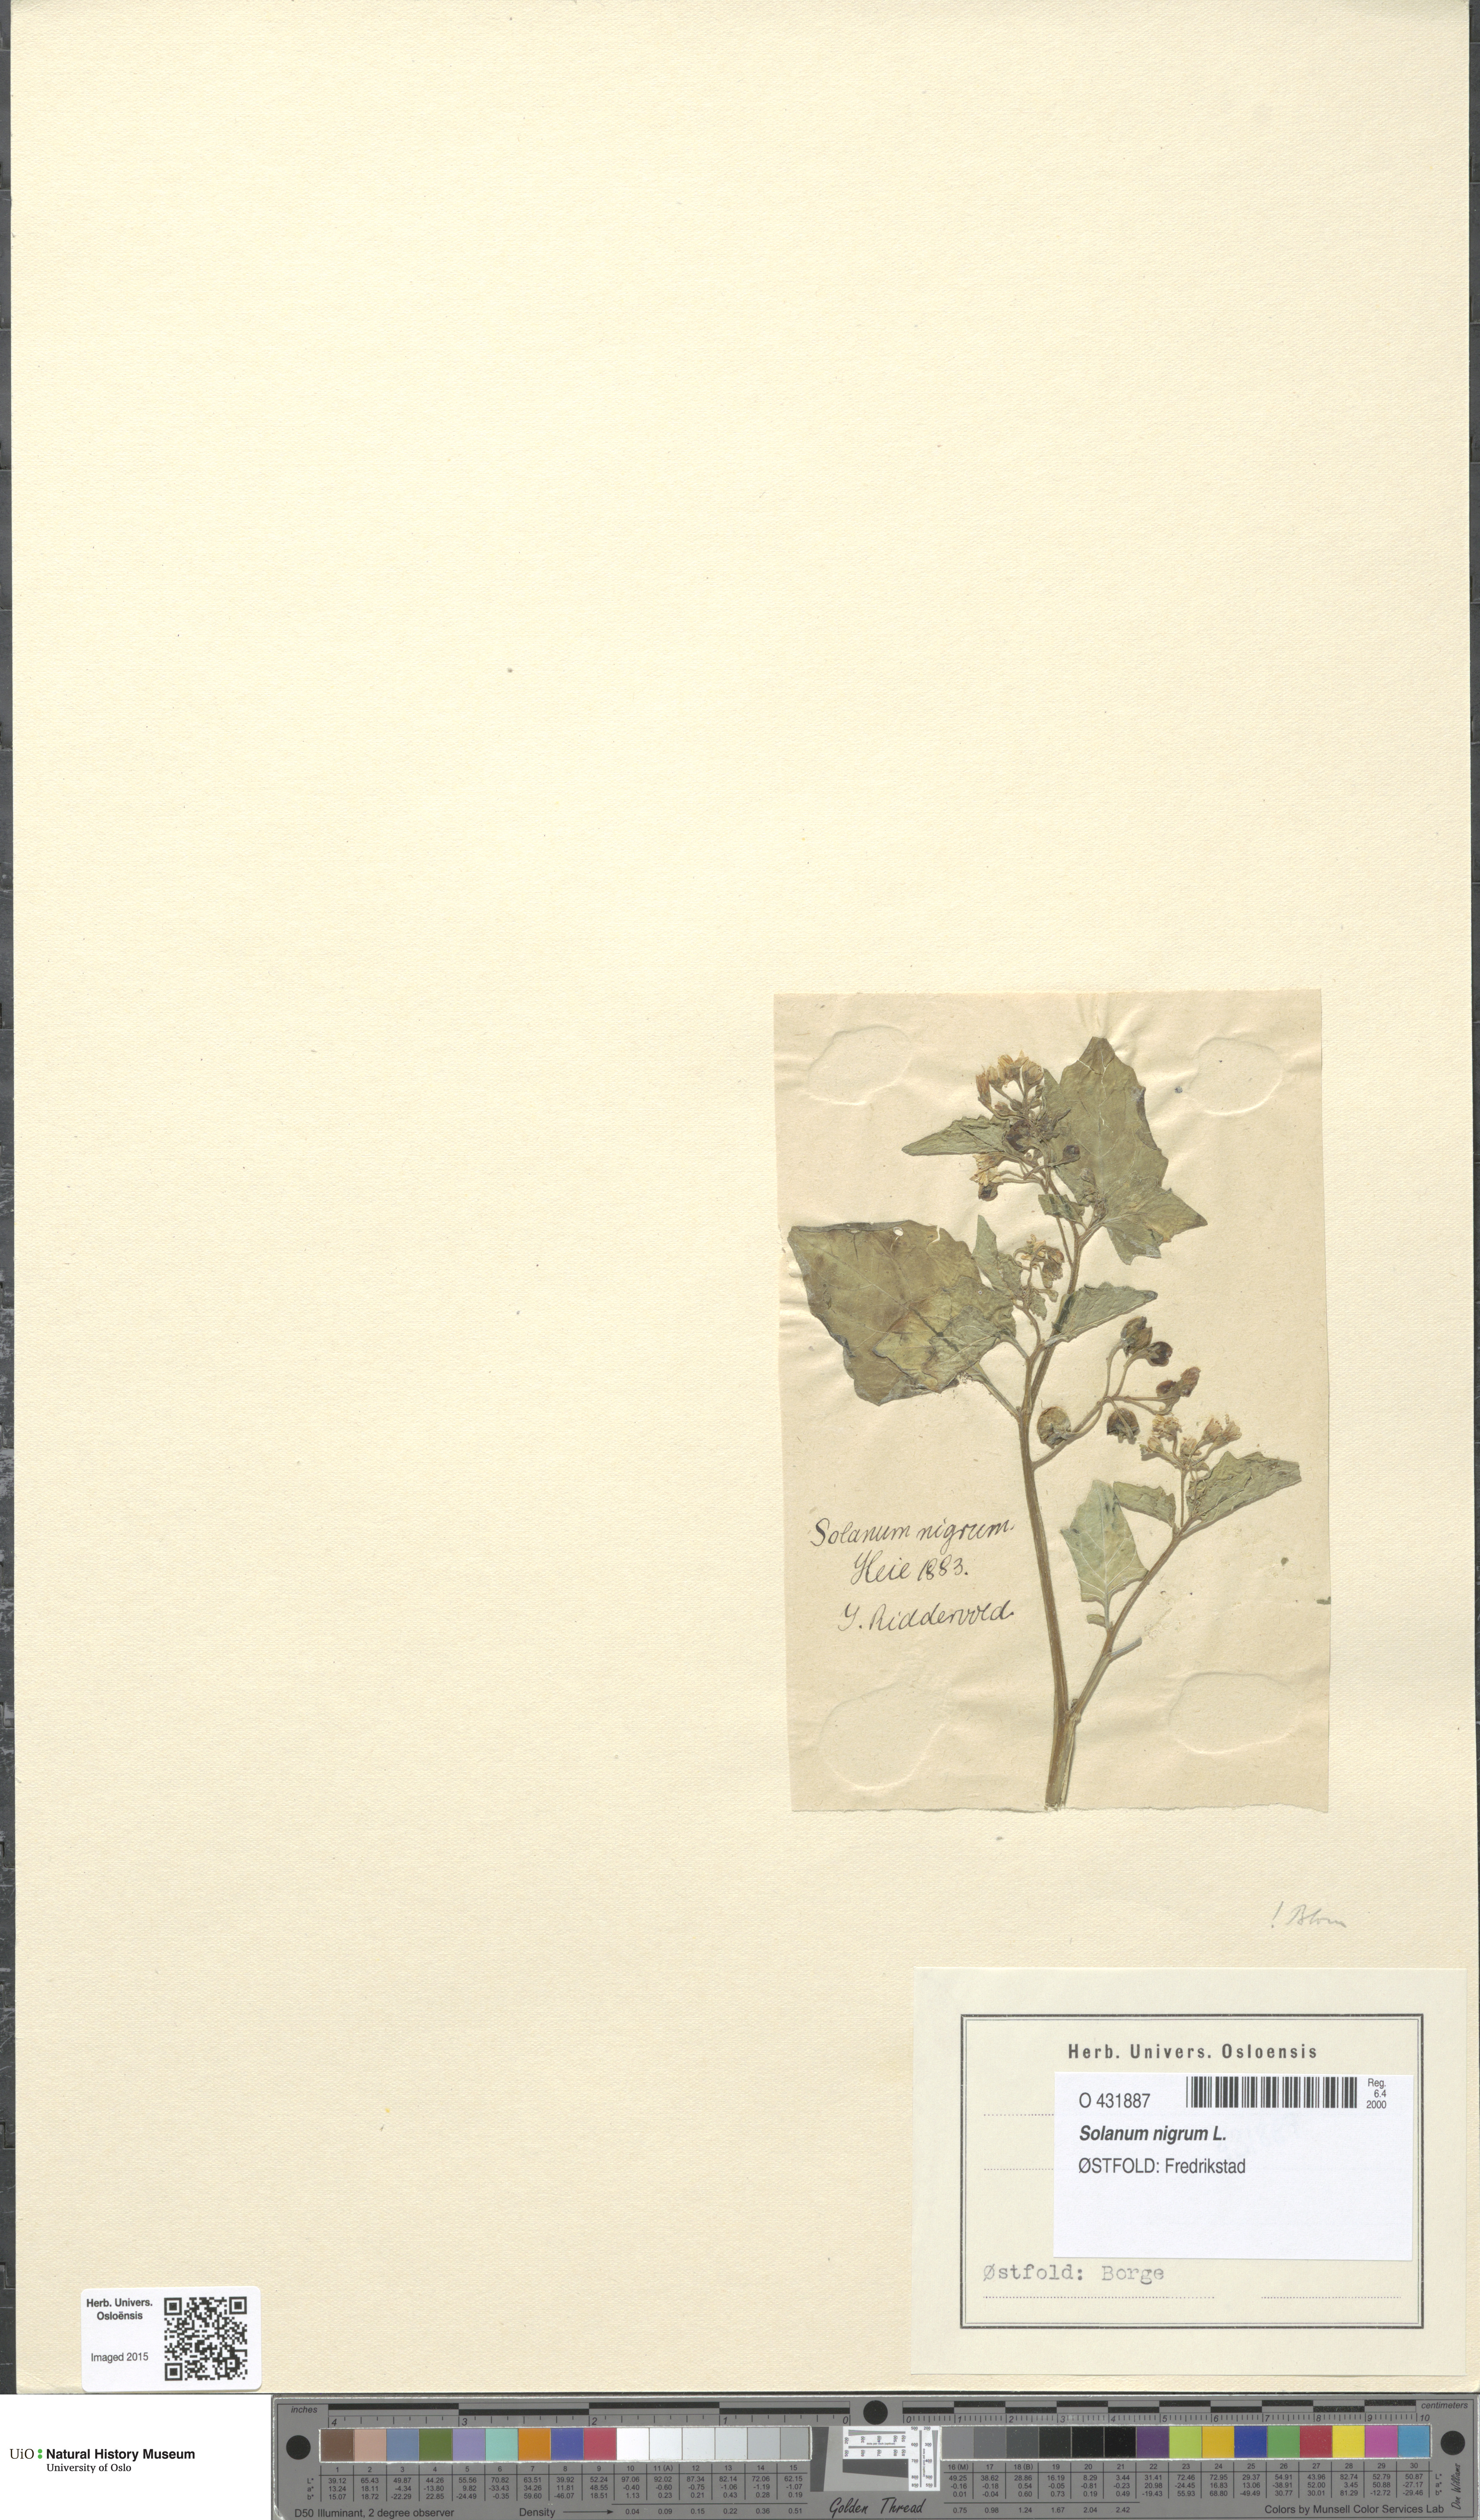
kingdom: Plantae
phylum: Tracheophyta
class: Magnoliopsida
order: Solanales
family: Solanaceae
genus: Solanum
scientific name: Solanum nigrum
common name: Black nightshade
